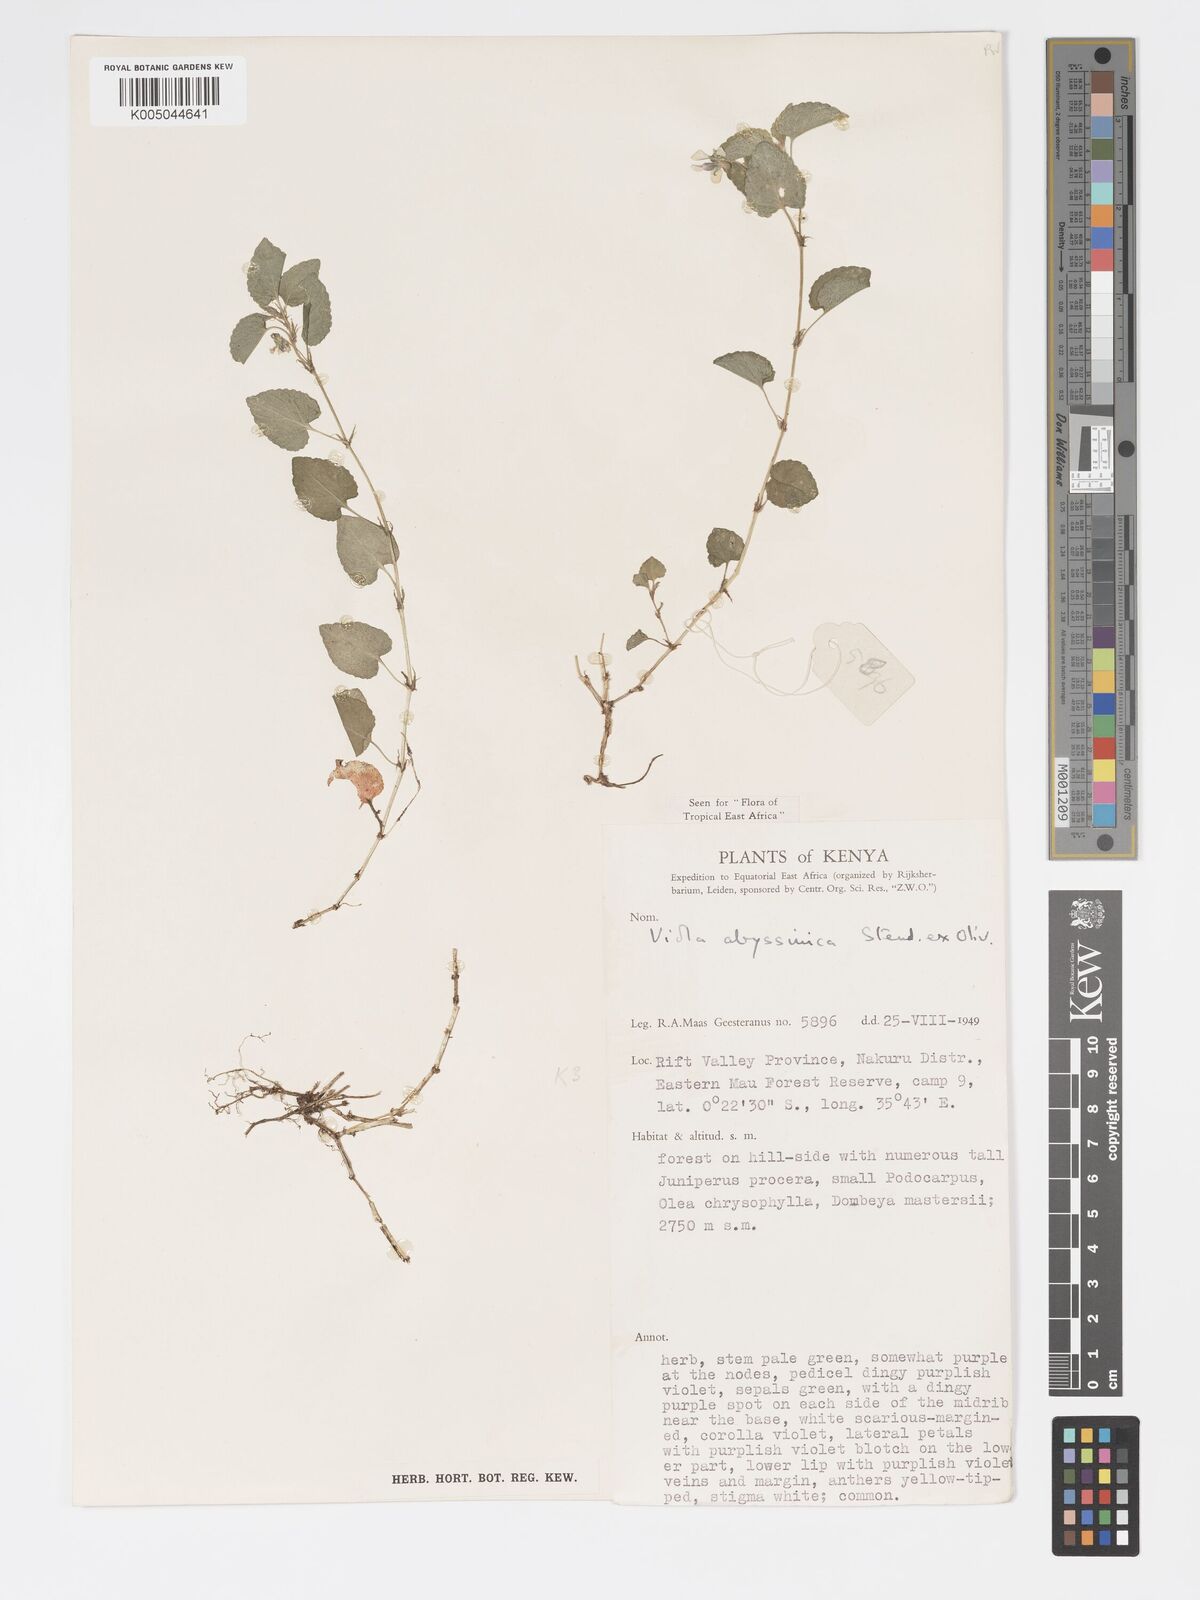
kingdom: Plantae
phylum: Tracheophyta
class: Magnoliopsida
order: Malpighiales
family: Violaceae
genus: Viola
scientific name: Viola abyssinica
